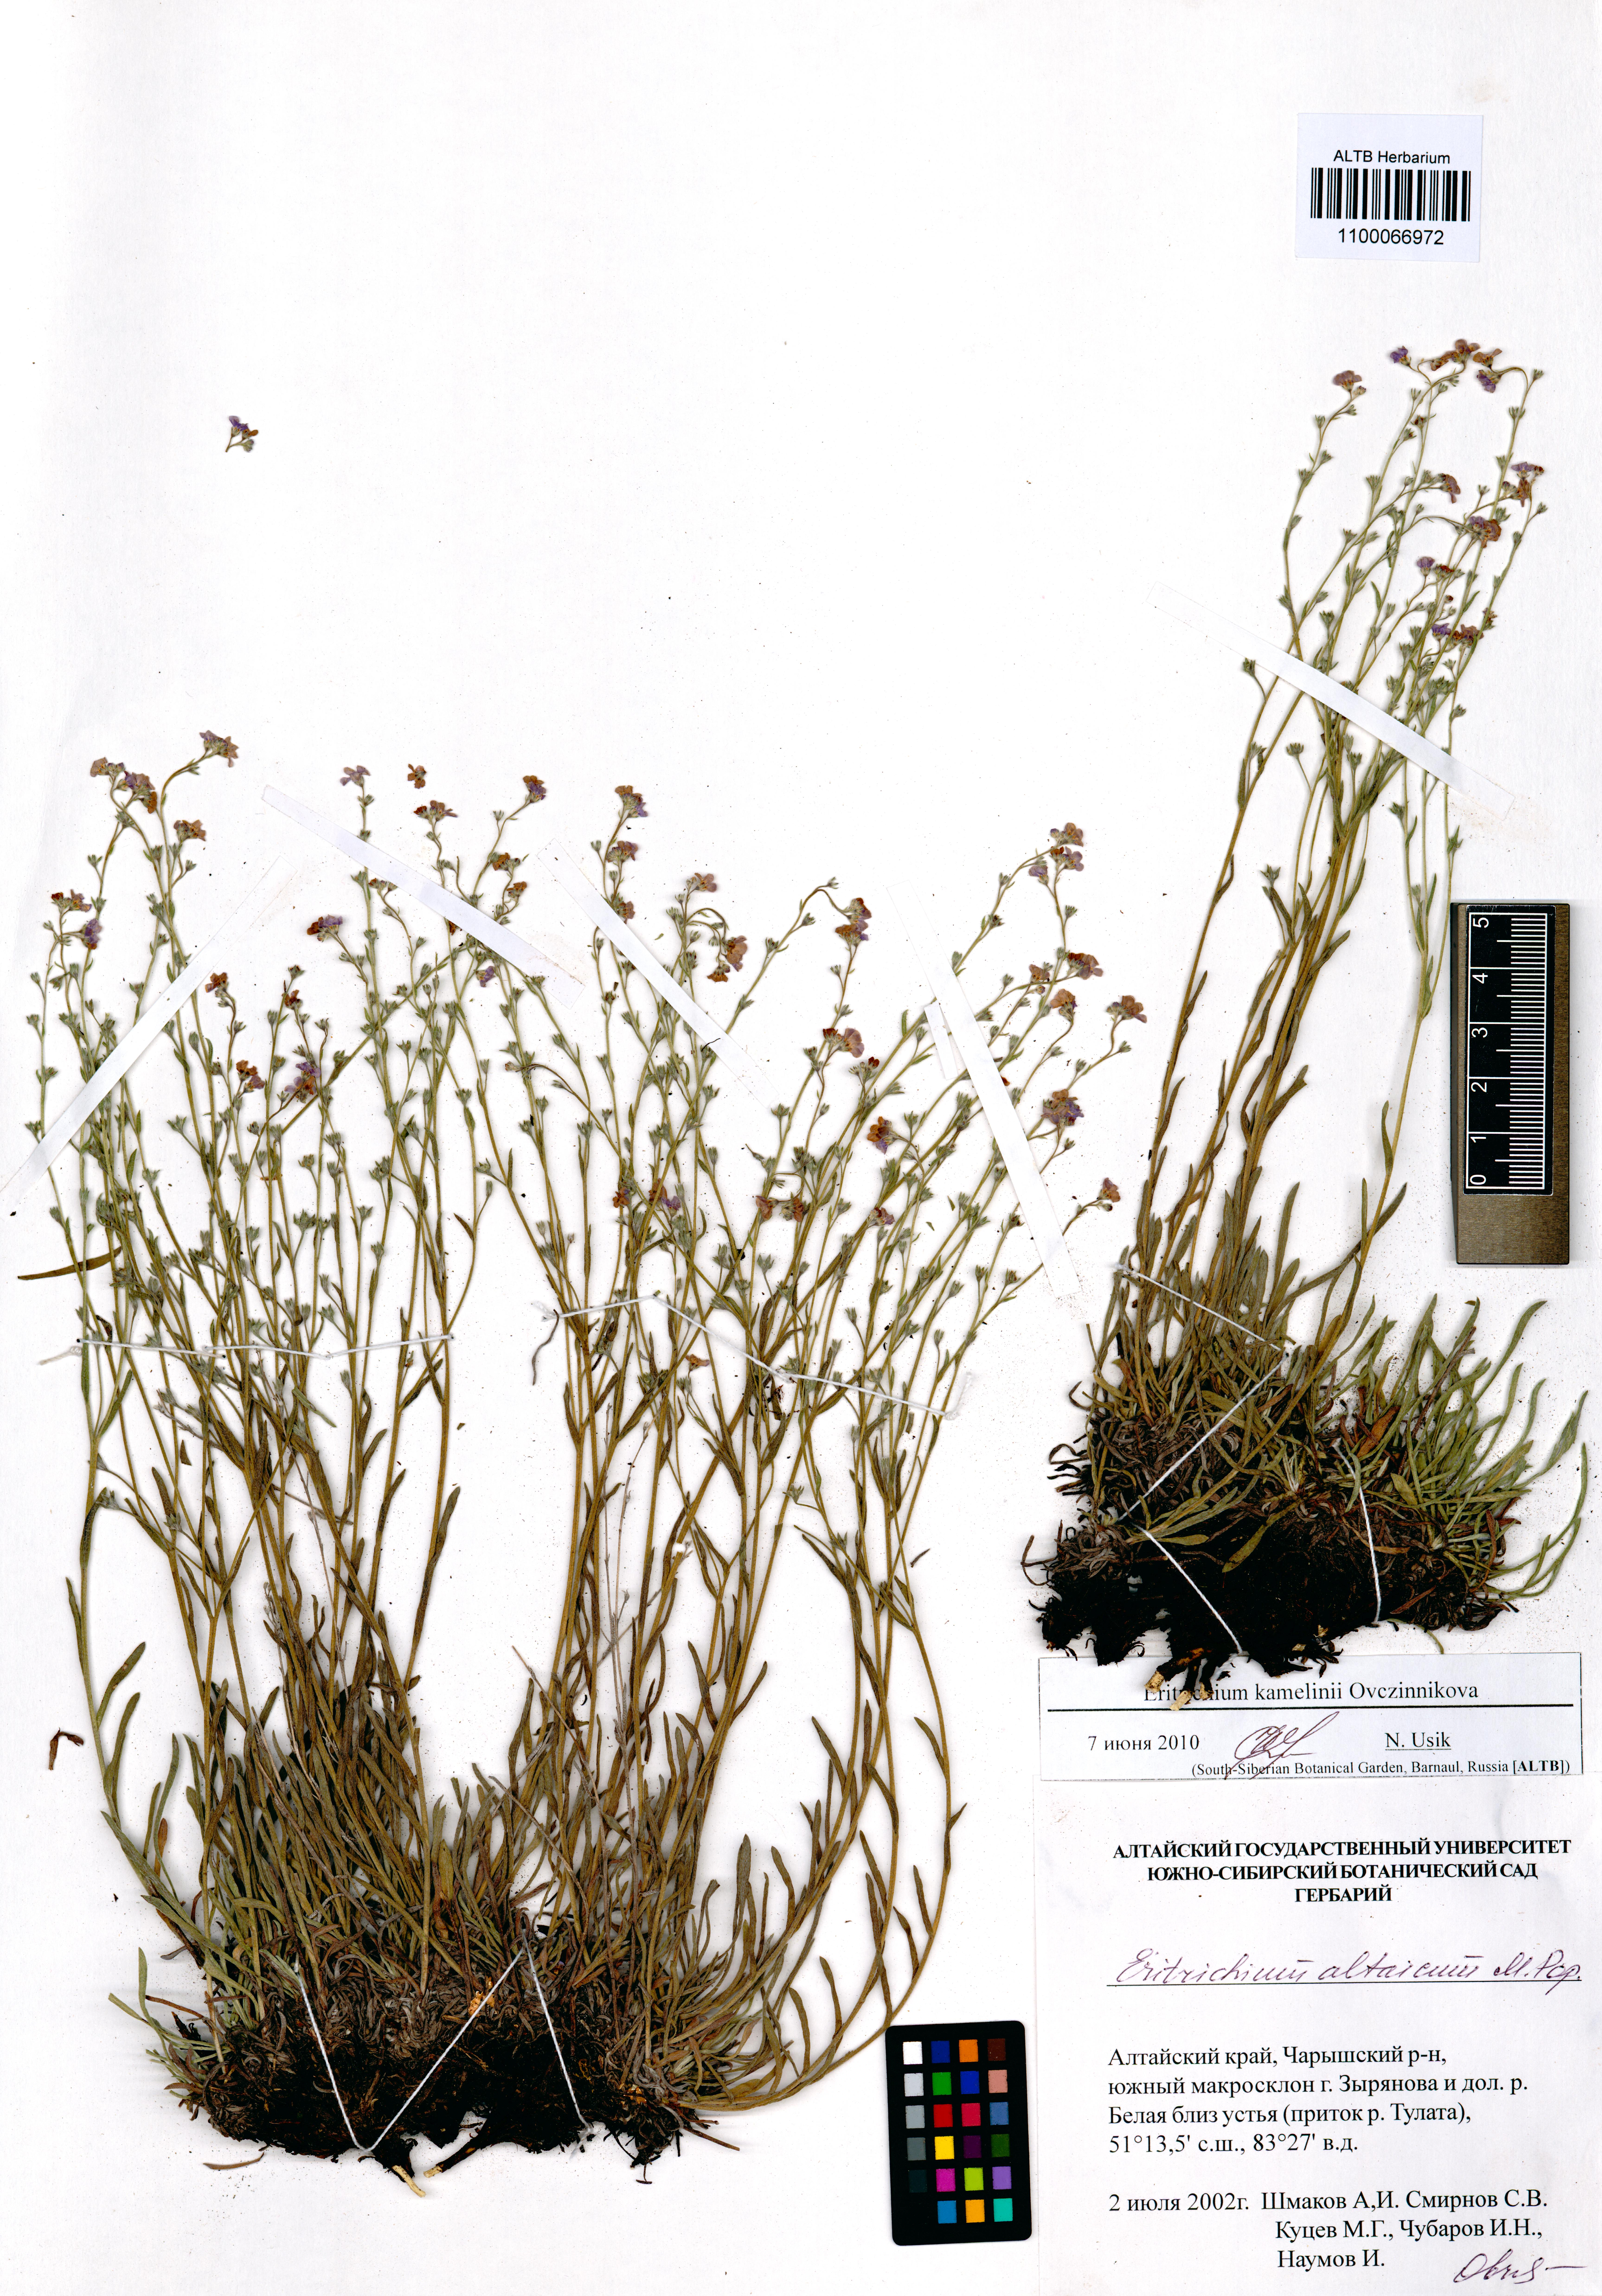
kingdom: Plantae
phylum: Tracheophyta
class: Magnoliopsida
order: Boraginales
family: Boraginaceae
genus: Eritrichium
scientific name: Eritrichium kamelinii
